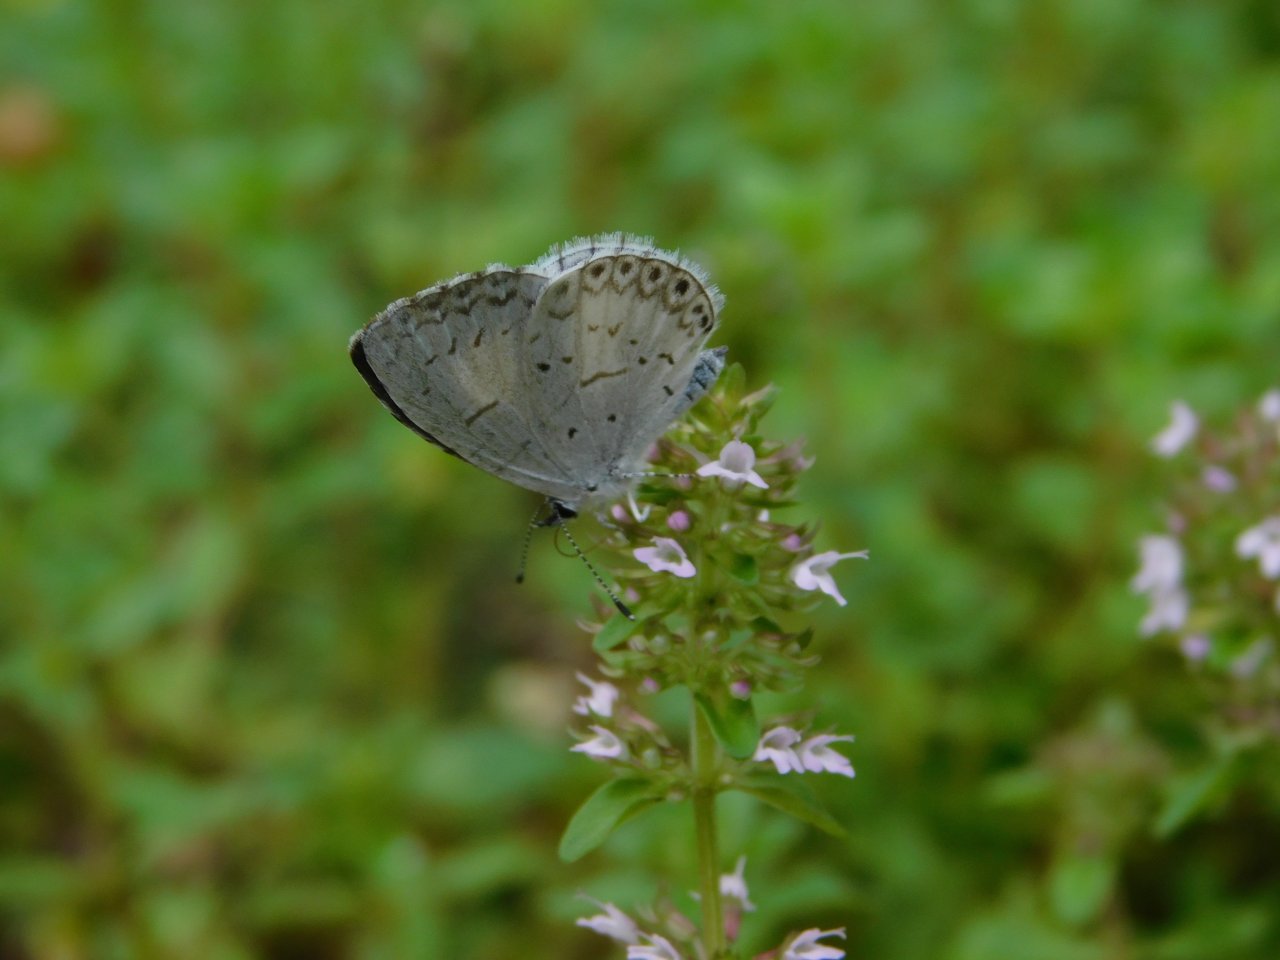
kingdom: Animalia
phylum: Arthropoda
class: Insecta
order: Lepidoptera
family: Lycaenidae
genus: Celastrina
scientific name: Celastrina
